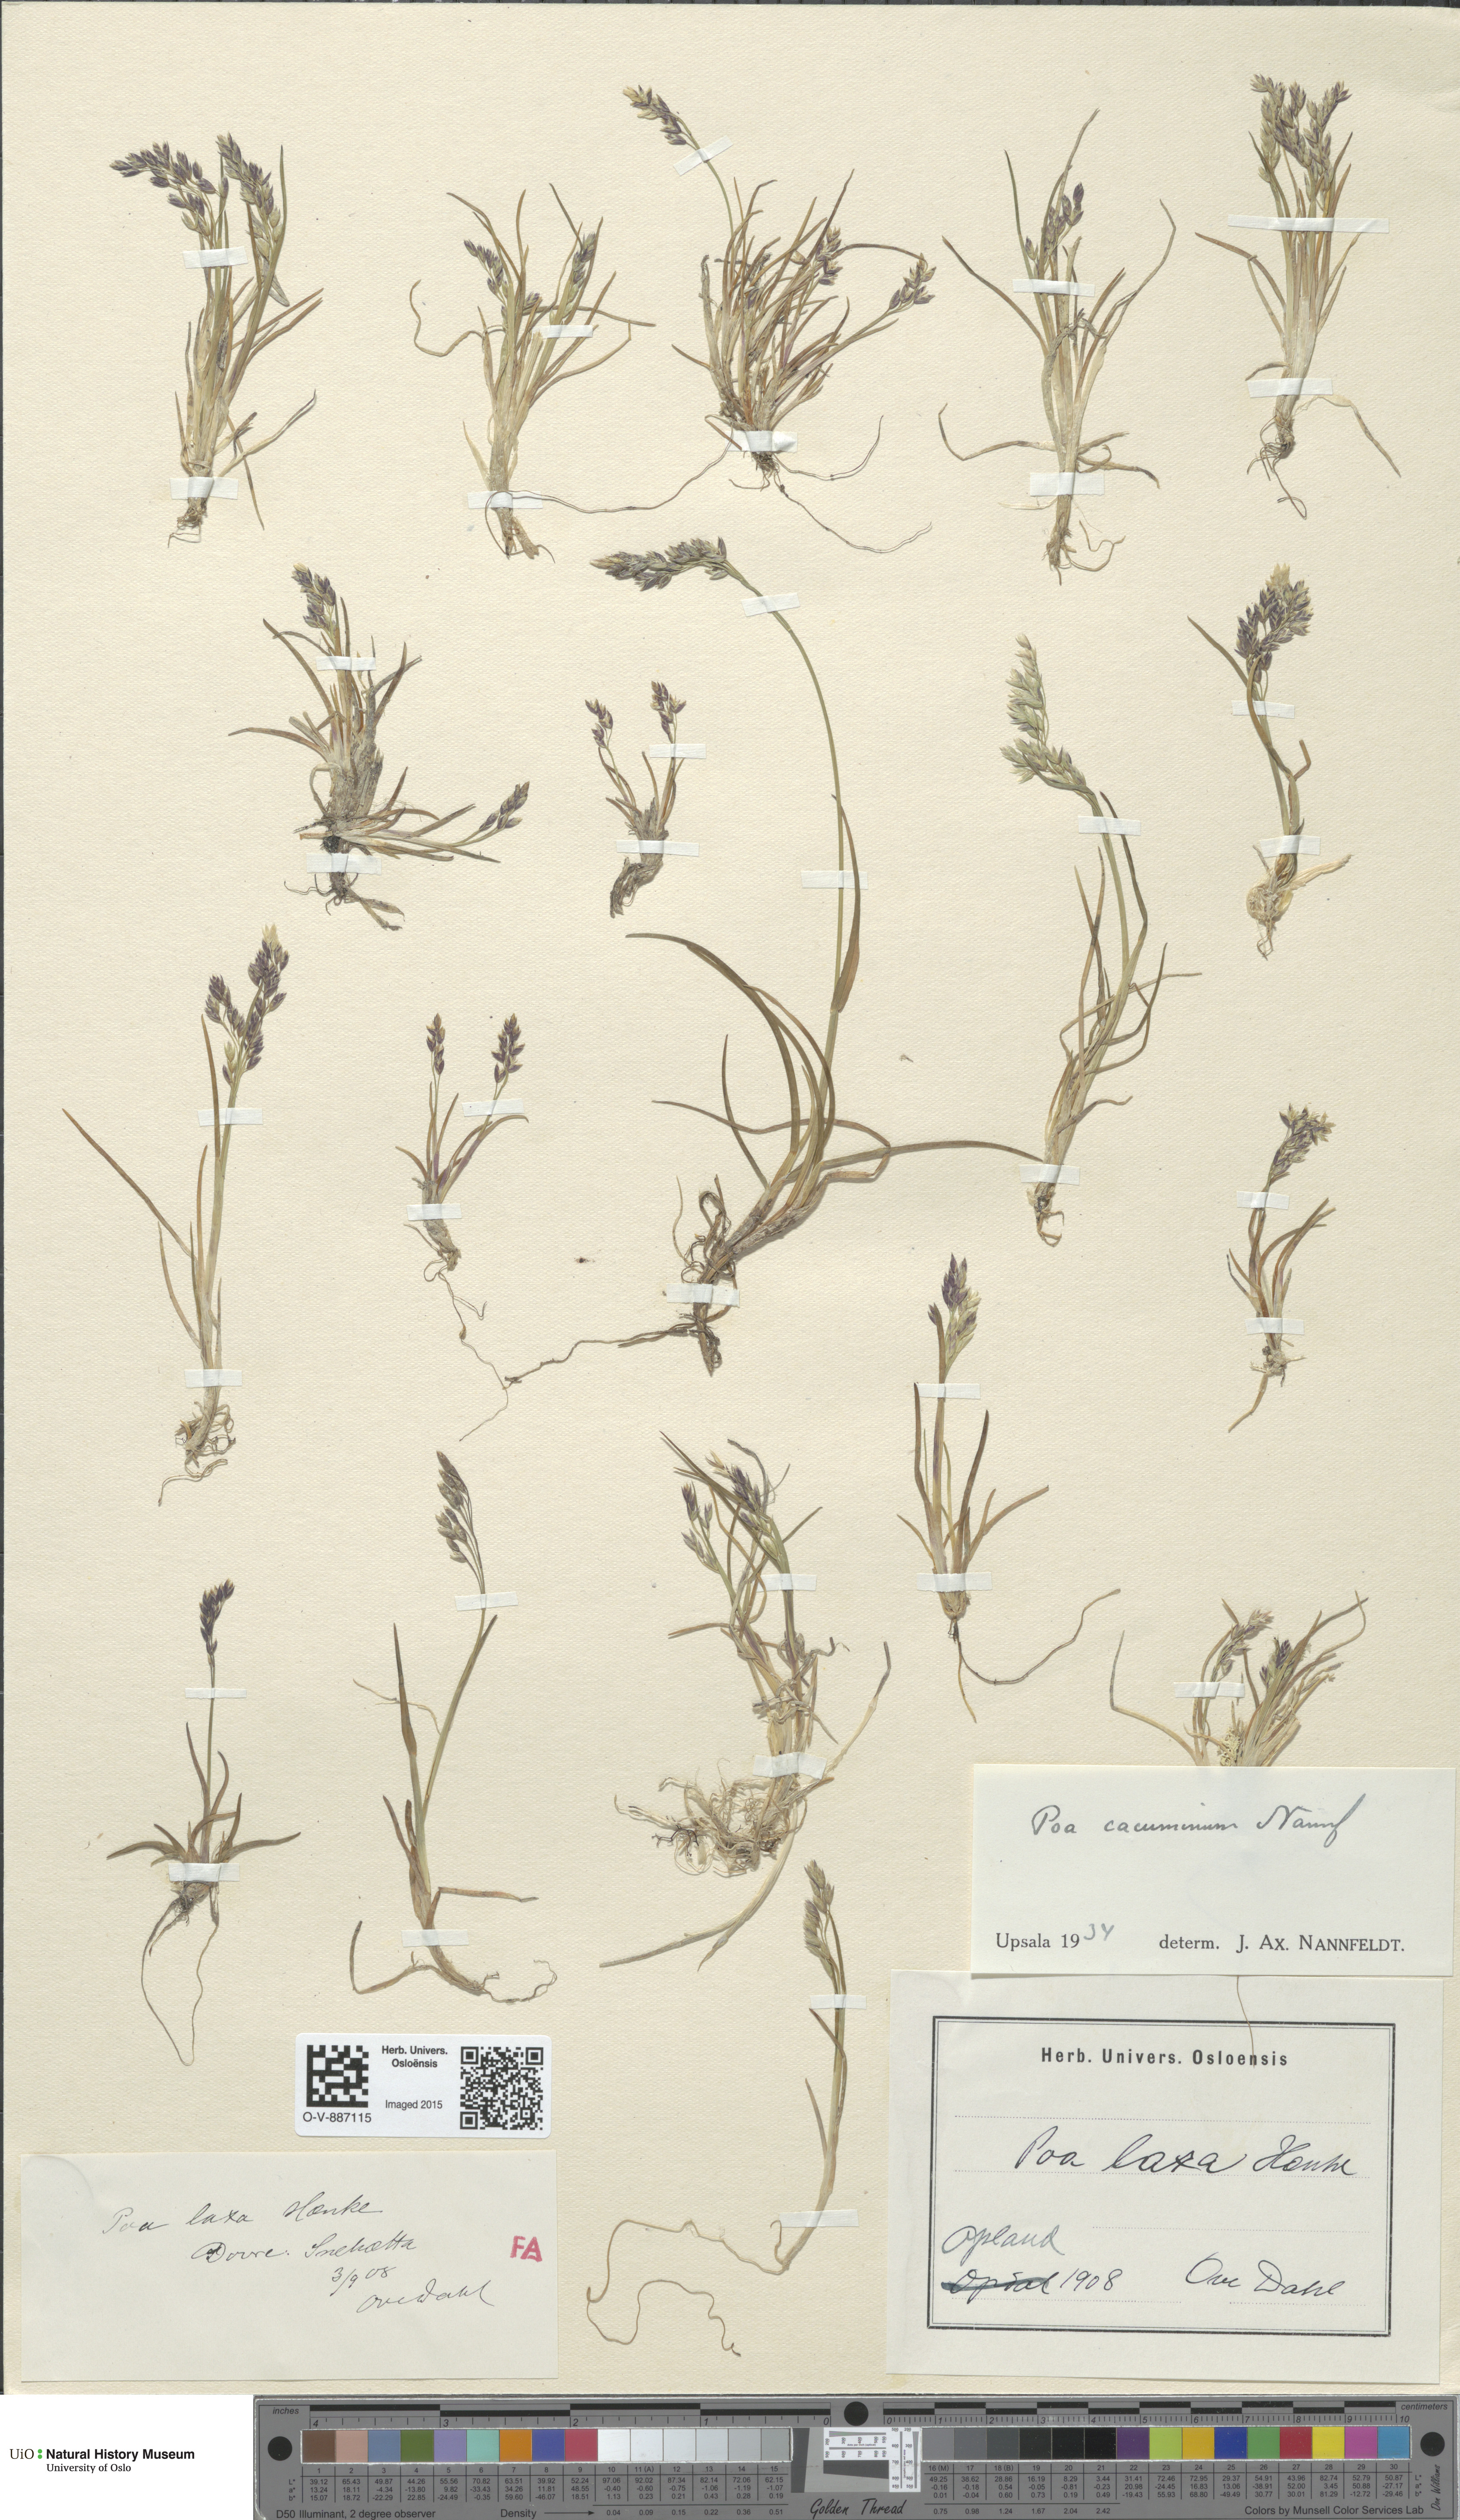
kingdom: Plantae
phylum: Tracheophyta
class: Liliopsida
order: Poales
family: Poaceae
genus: Poa
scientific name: Poa flexuosa
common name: Wavy meadow-grass
